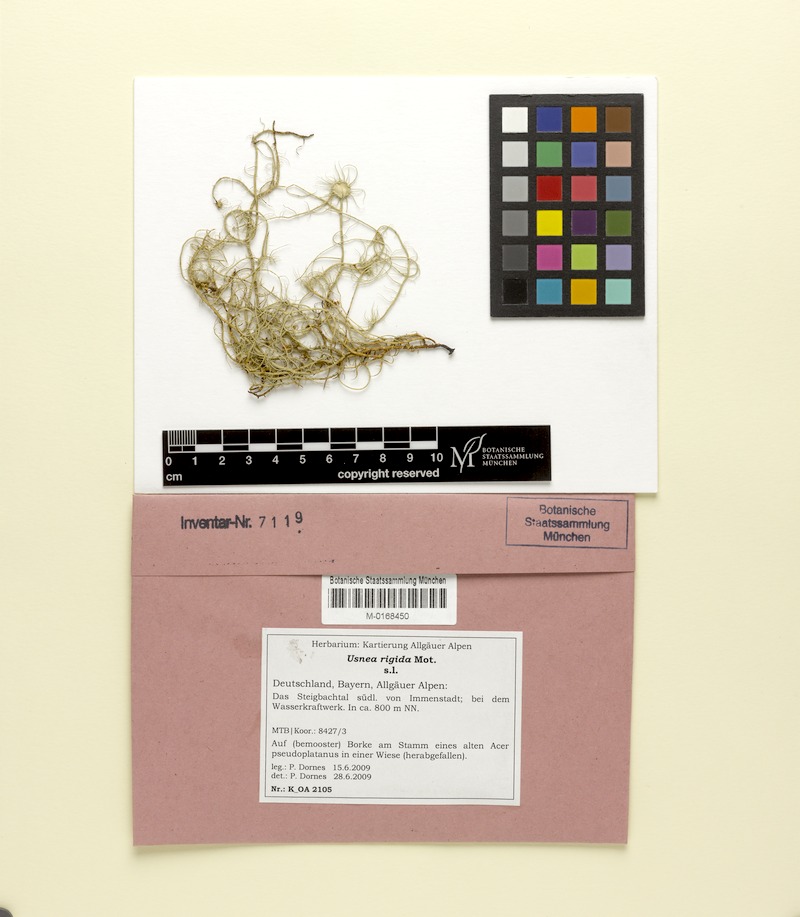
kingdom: Fungi
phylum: Ascomycota
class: Lecanoromycetes
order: Lecanorales
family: Parmeliaceae
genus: Usnea
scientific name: Usnea quasirigida
